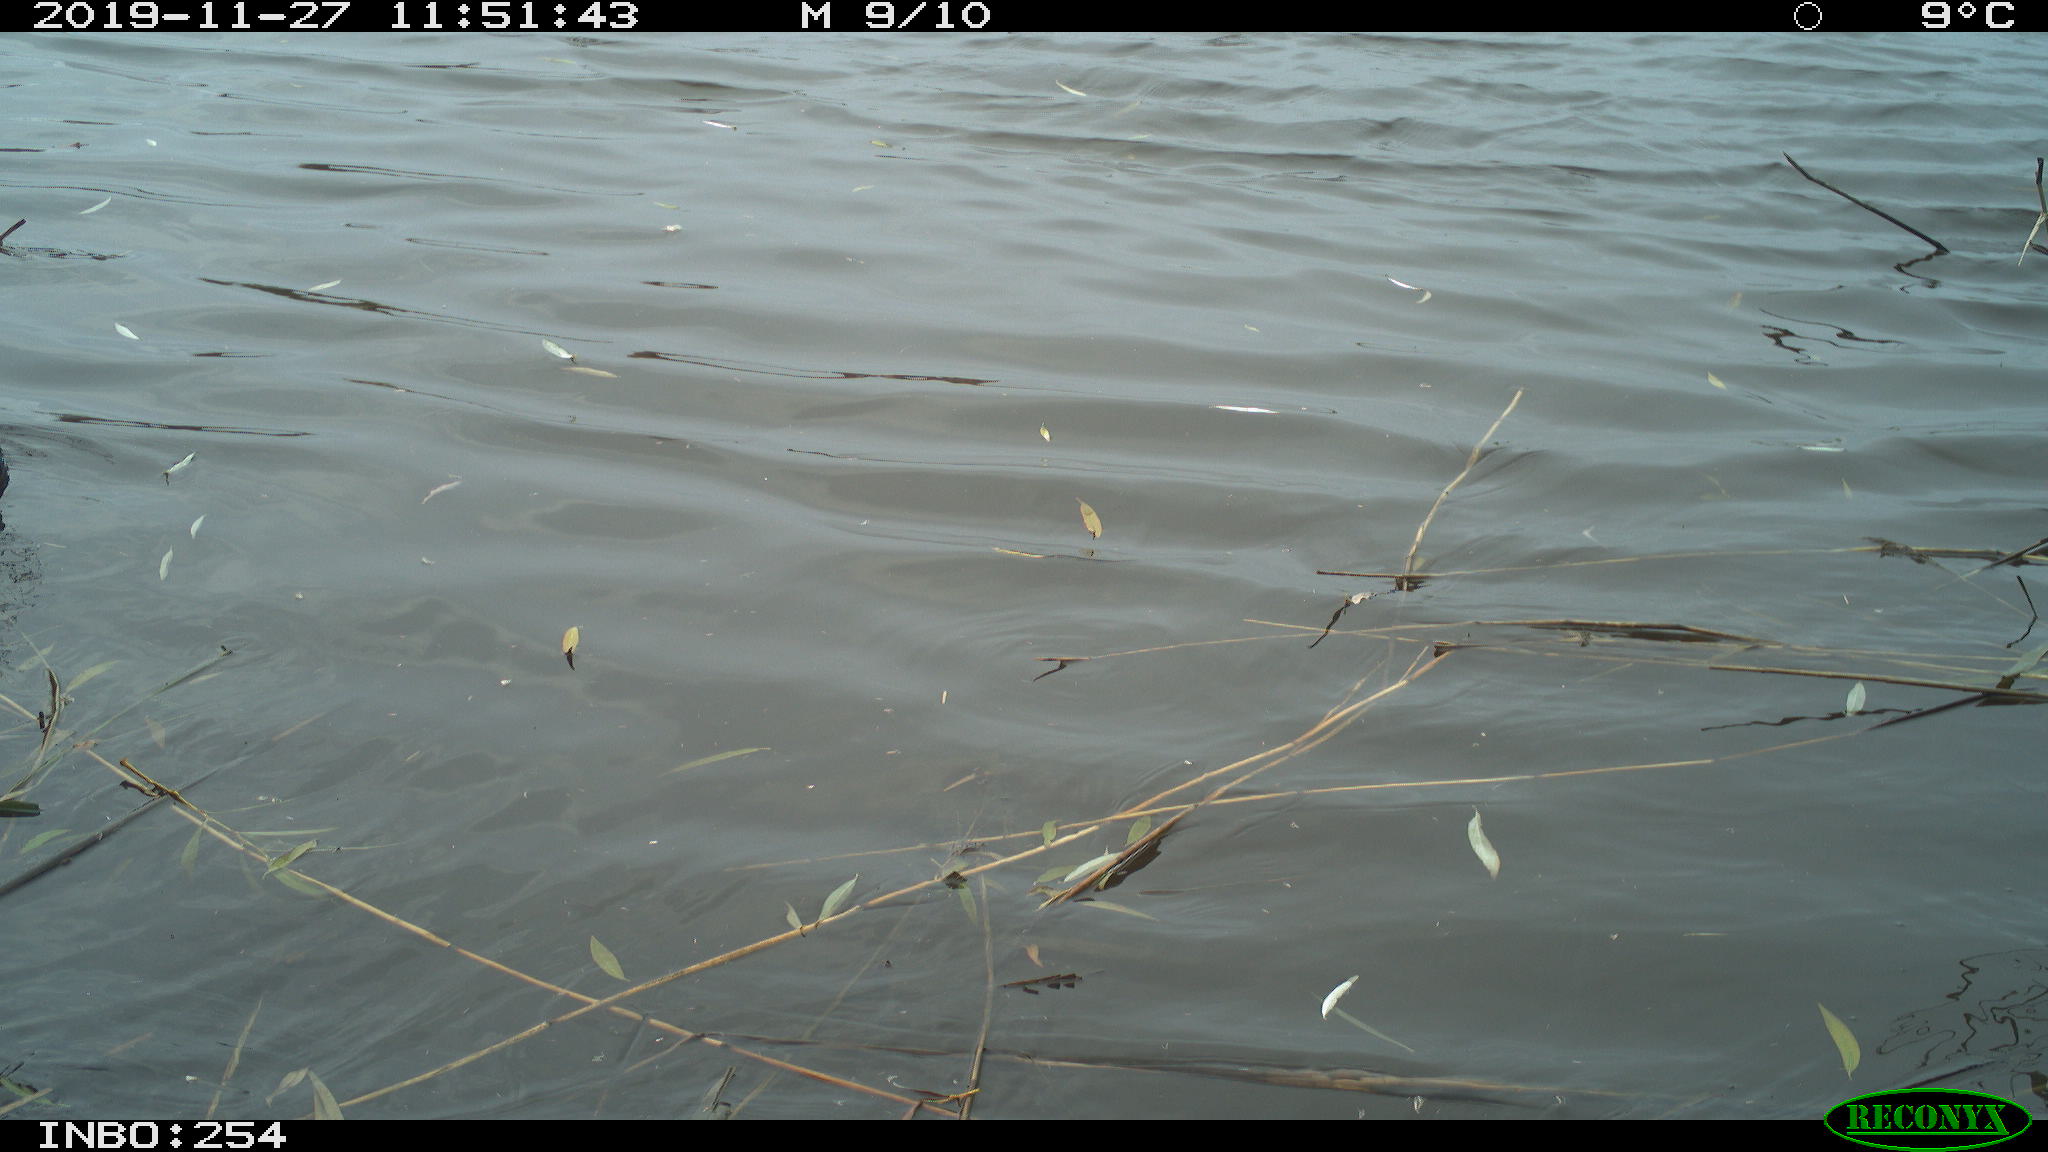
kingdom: Animalia
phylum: Chordata
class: Aves
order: Gruiformes
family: Rallidae
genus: Gallinula
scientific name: Gallinula chloropus
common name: Common moorhen
